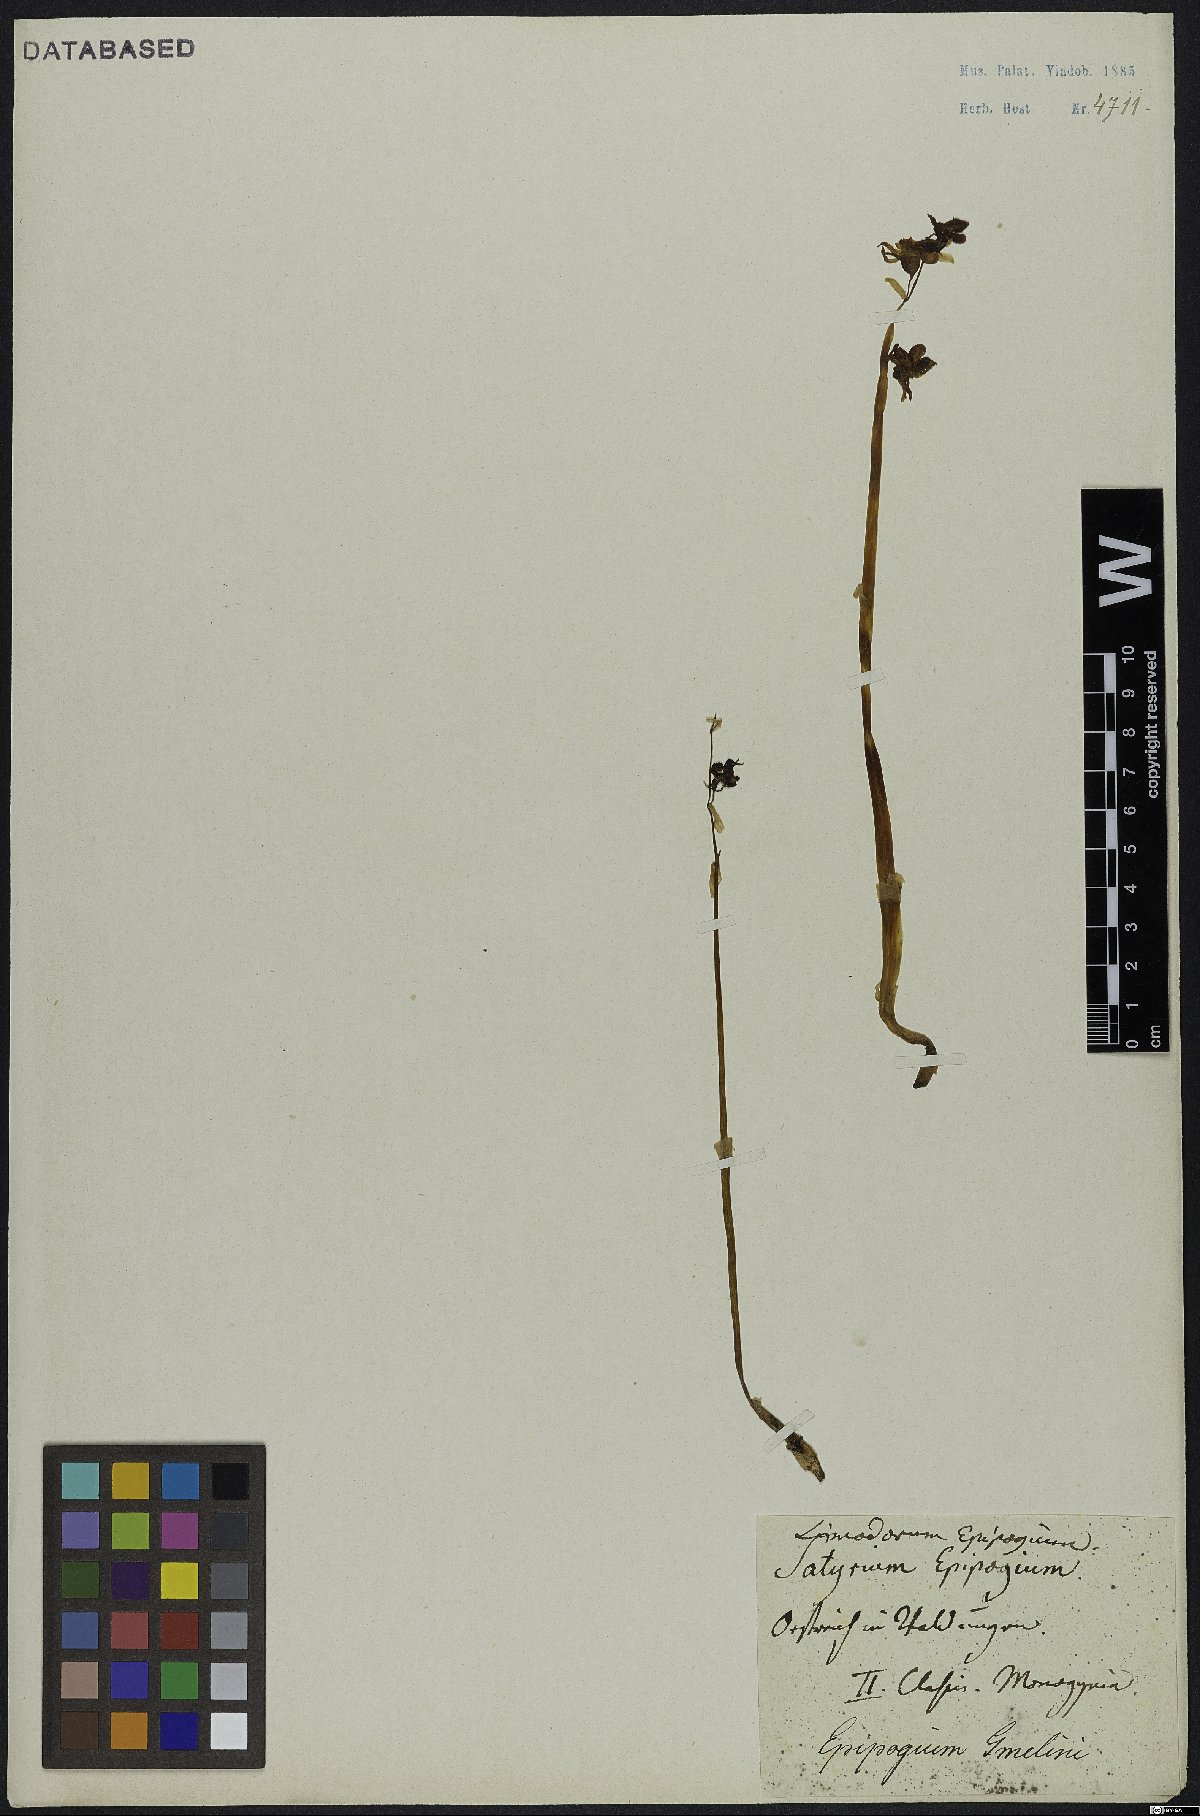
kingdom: Plantae
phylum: Tracheophyta
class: Liliopsida
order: Asparagales
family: Orchidaceae
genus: Epipogium
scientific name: Epipogium aphyllum
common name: Ghost orchid
